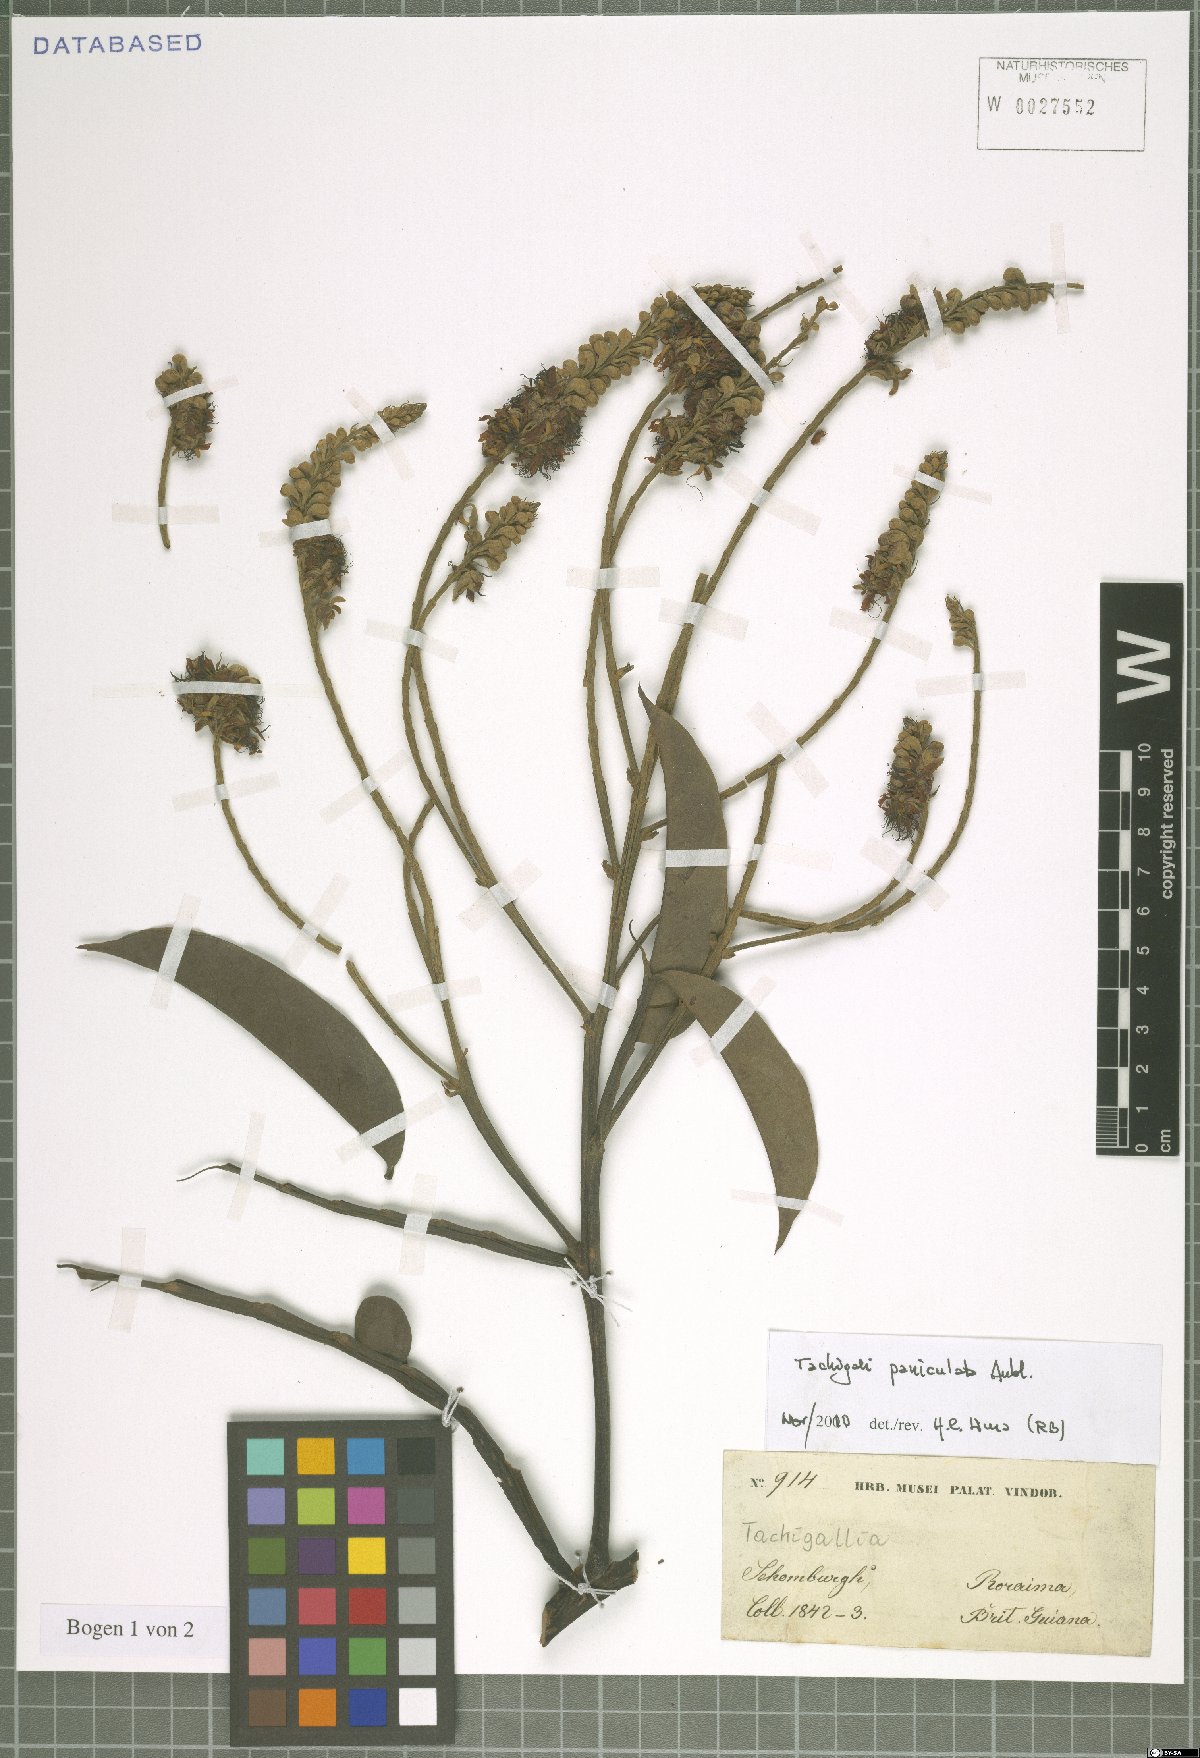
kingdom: Plantae
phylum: Tracheophyta
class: Magnoliopsida
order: Fabales
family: Fabaceae
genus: Tachigali
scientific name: Tachigali paniculata
